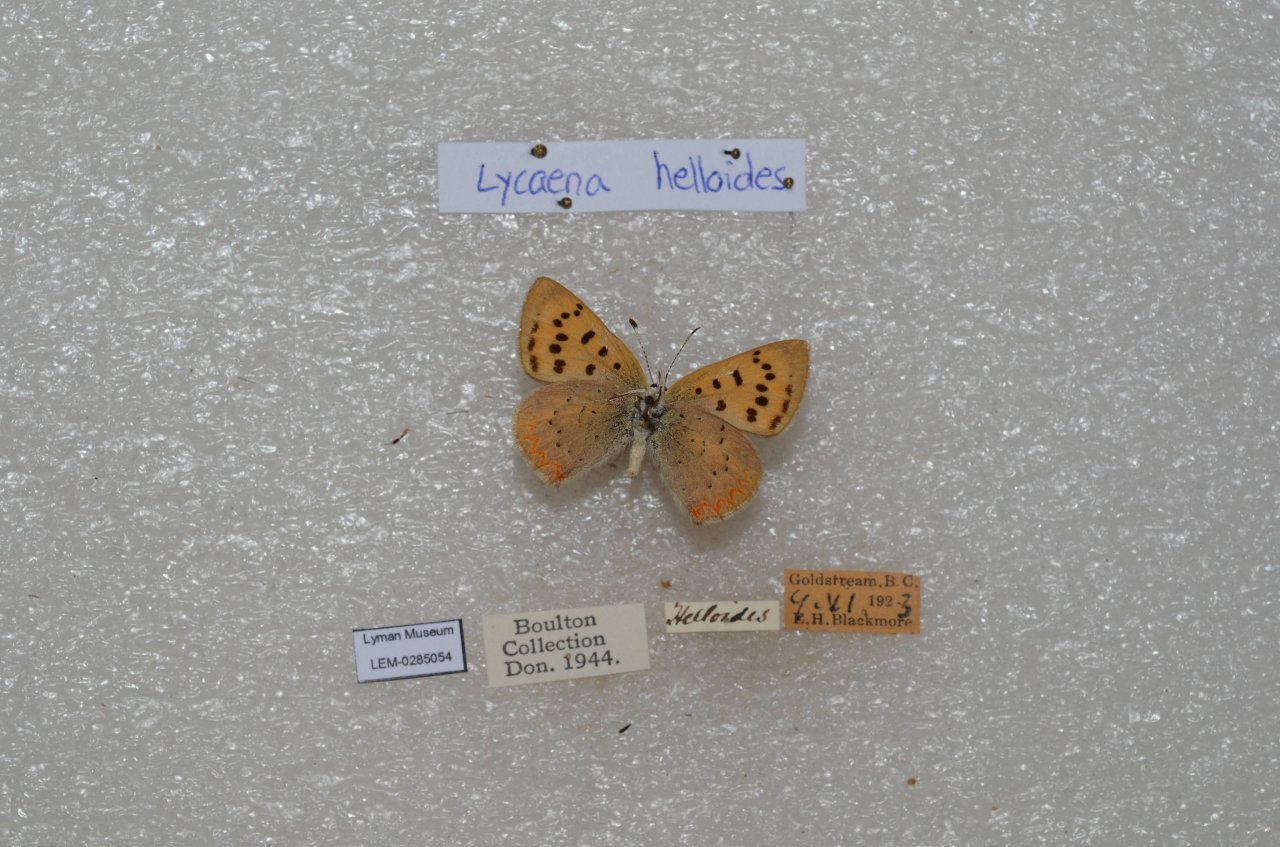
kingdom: Animalia
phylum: Arthropoda
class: Insecta
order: Lepidoptera
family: Sesiidae
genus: Sesia
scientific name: Sesia Lycaena helloides
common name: Purplish Copper
